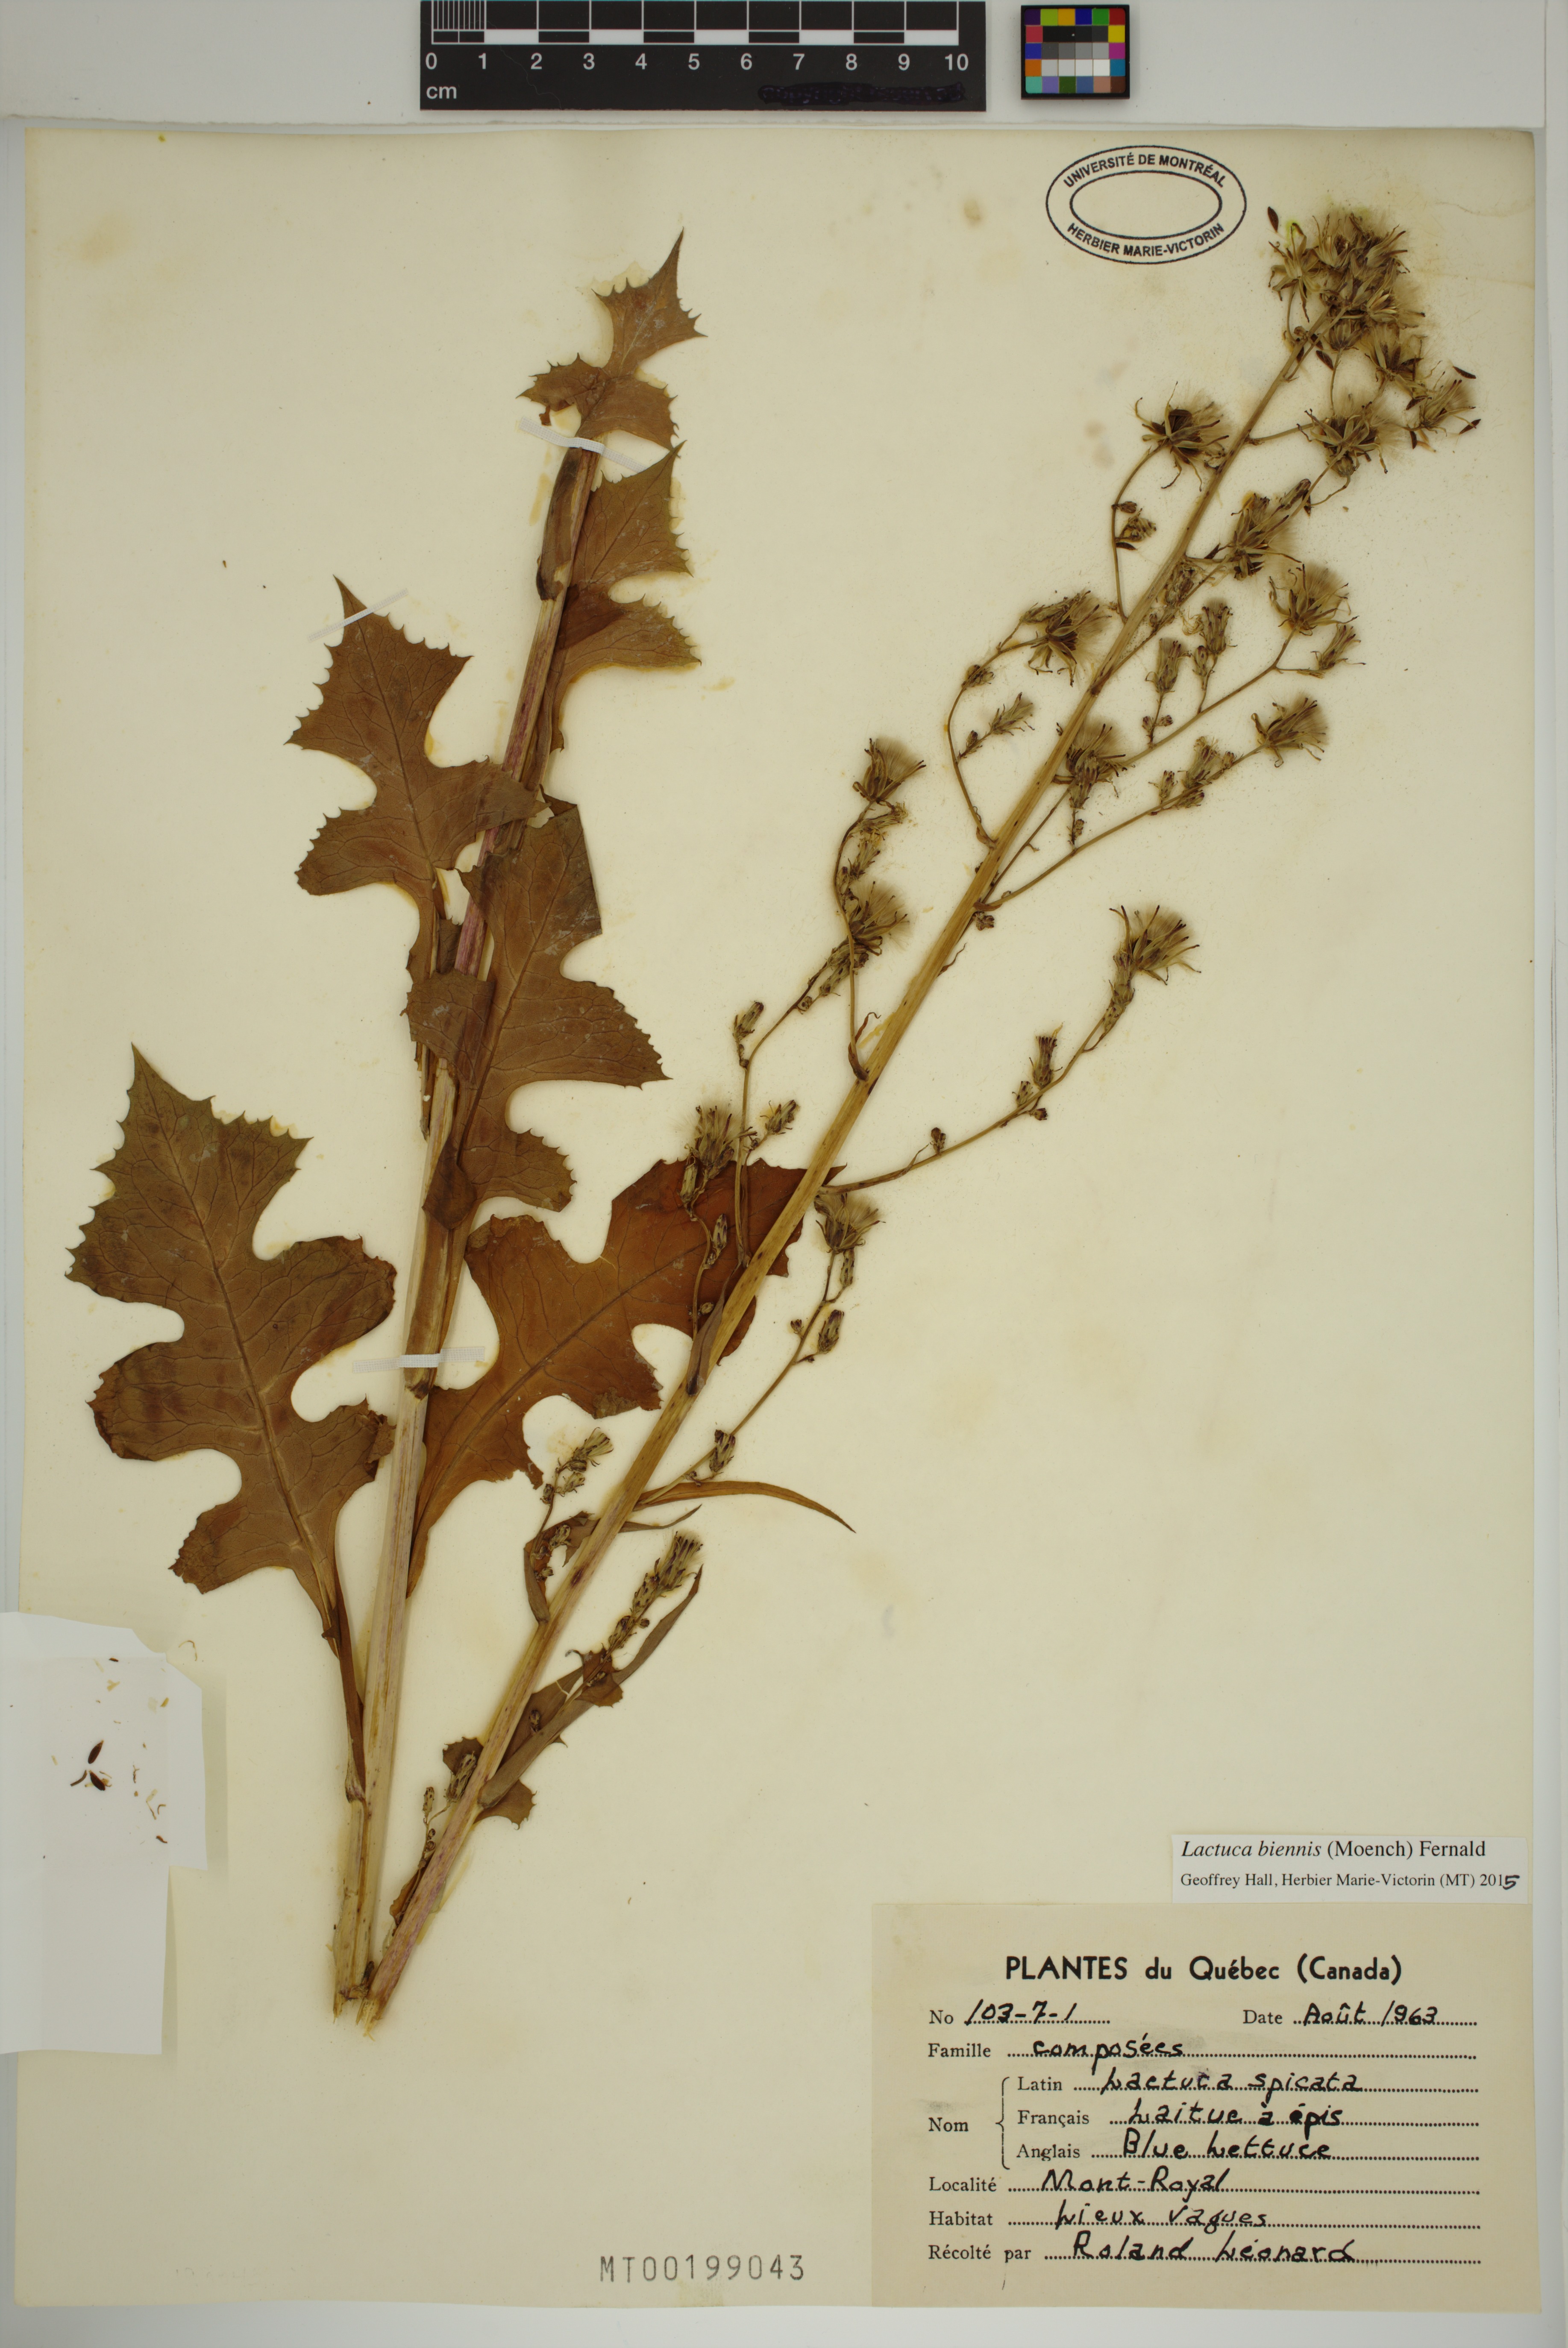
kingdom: Plantae
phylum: Tracheophyta
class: Magnoliopsida
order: Asterales
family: Asteraceae
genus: Lactuca
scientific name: Lactuca biennis
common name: Blue wood lettuce
